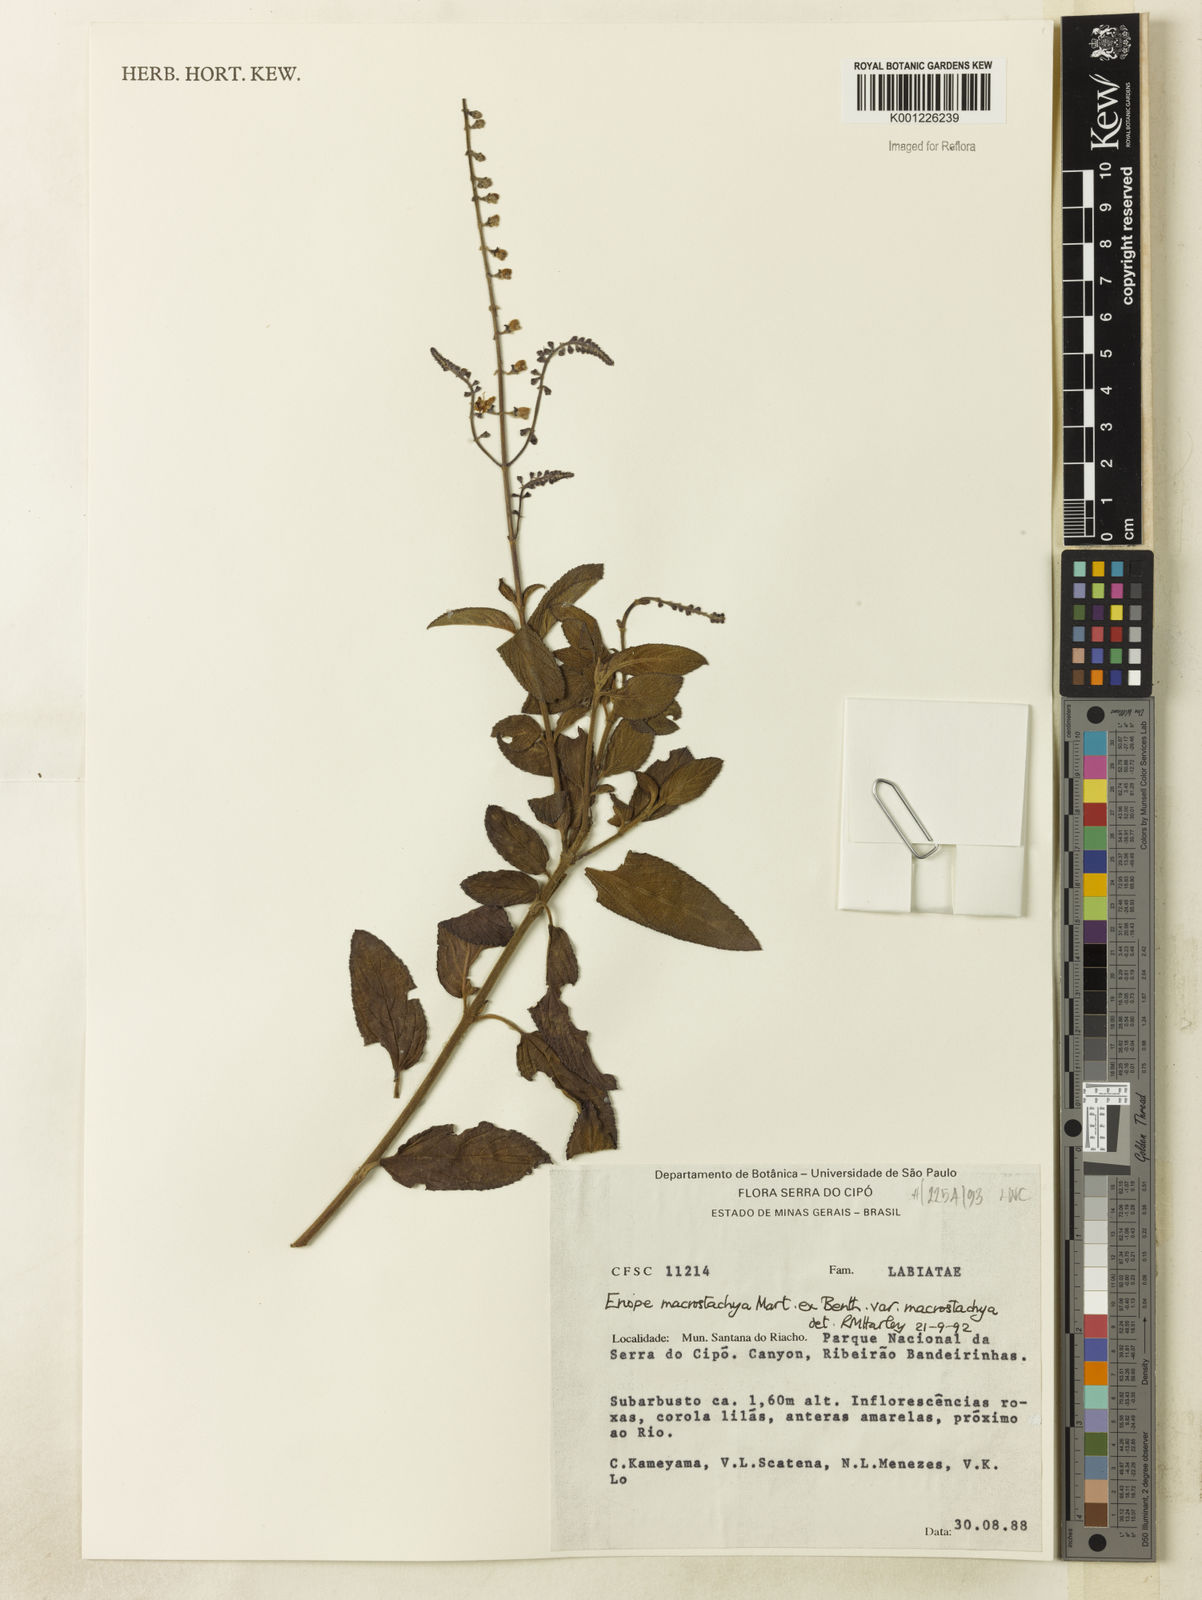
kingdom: Plantae
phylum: Tracheophyta
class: Magnoliopsida
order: Lamiales
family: Lamiaceae
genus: Eriope
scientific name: Eriope macrostachya
